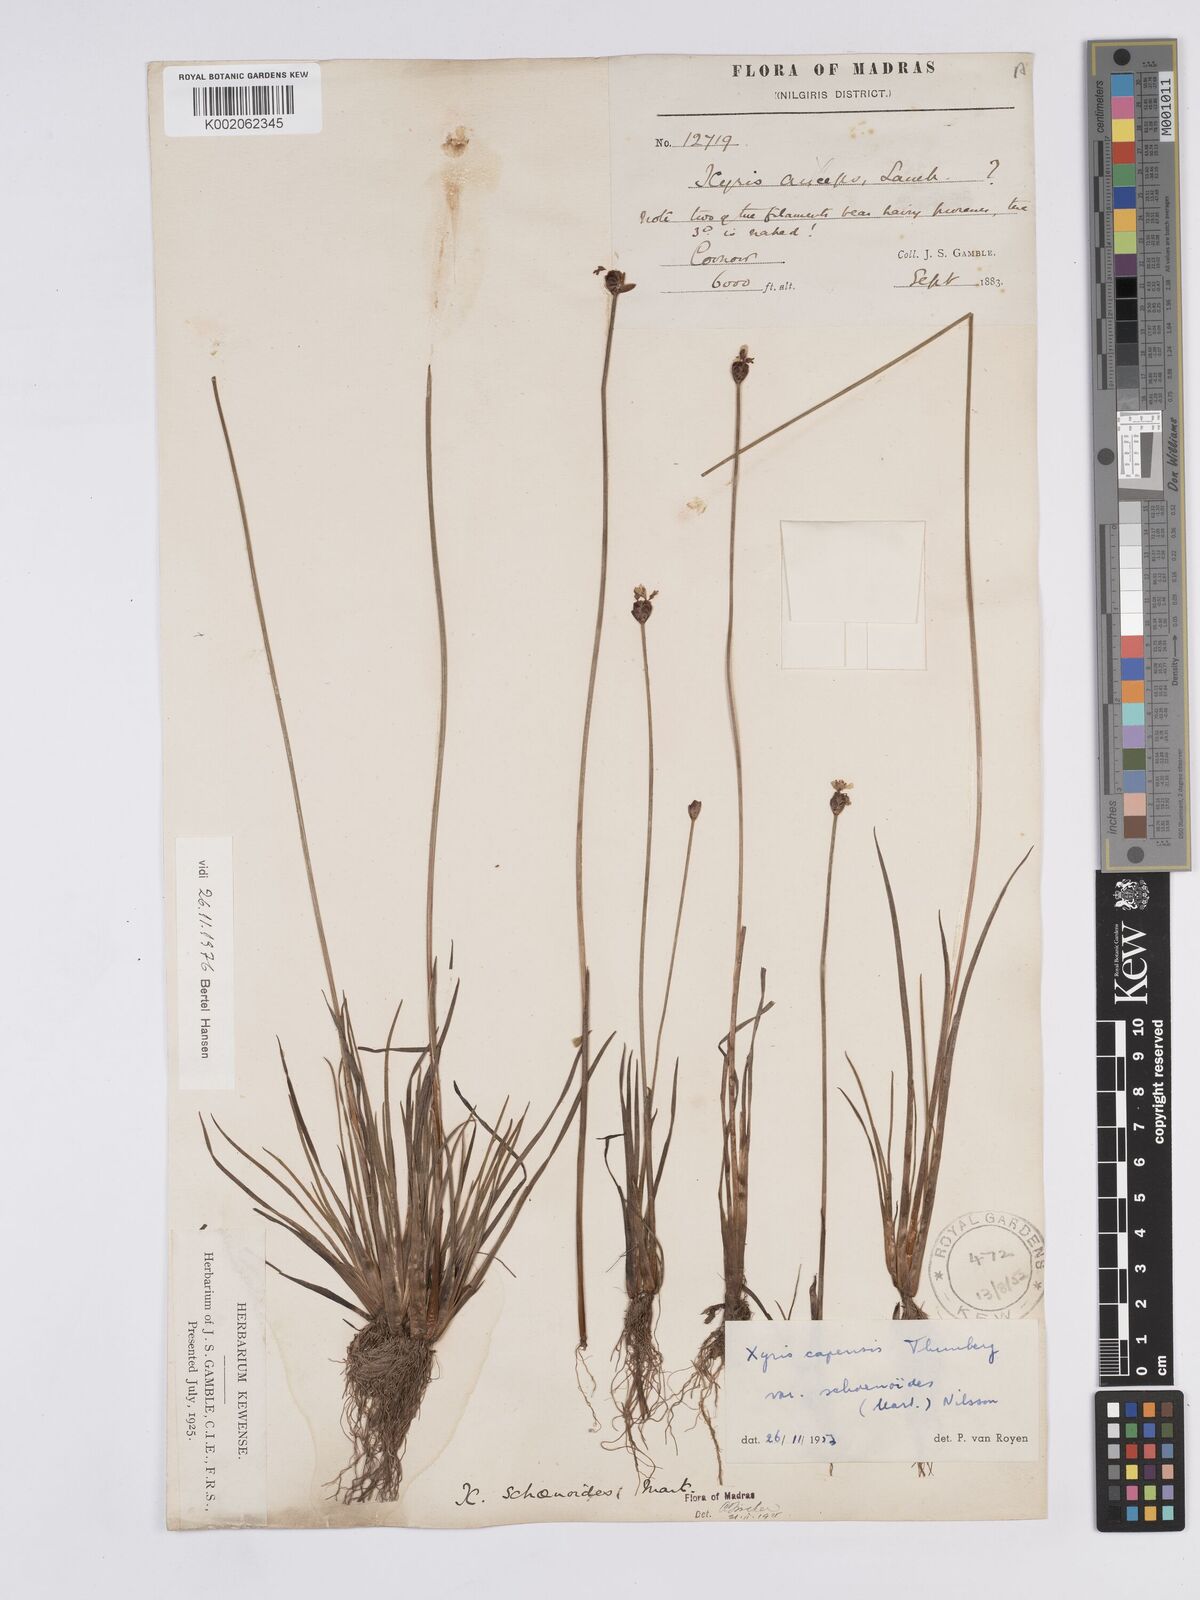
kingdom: Plantae
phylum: Tracheophyta
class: Liliopsida
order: Poales
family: Xyridaceae
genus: Xyris
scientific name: Xyris capensis
